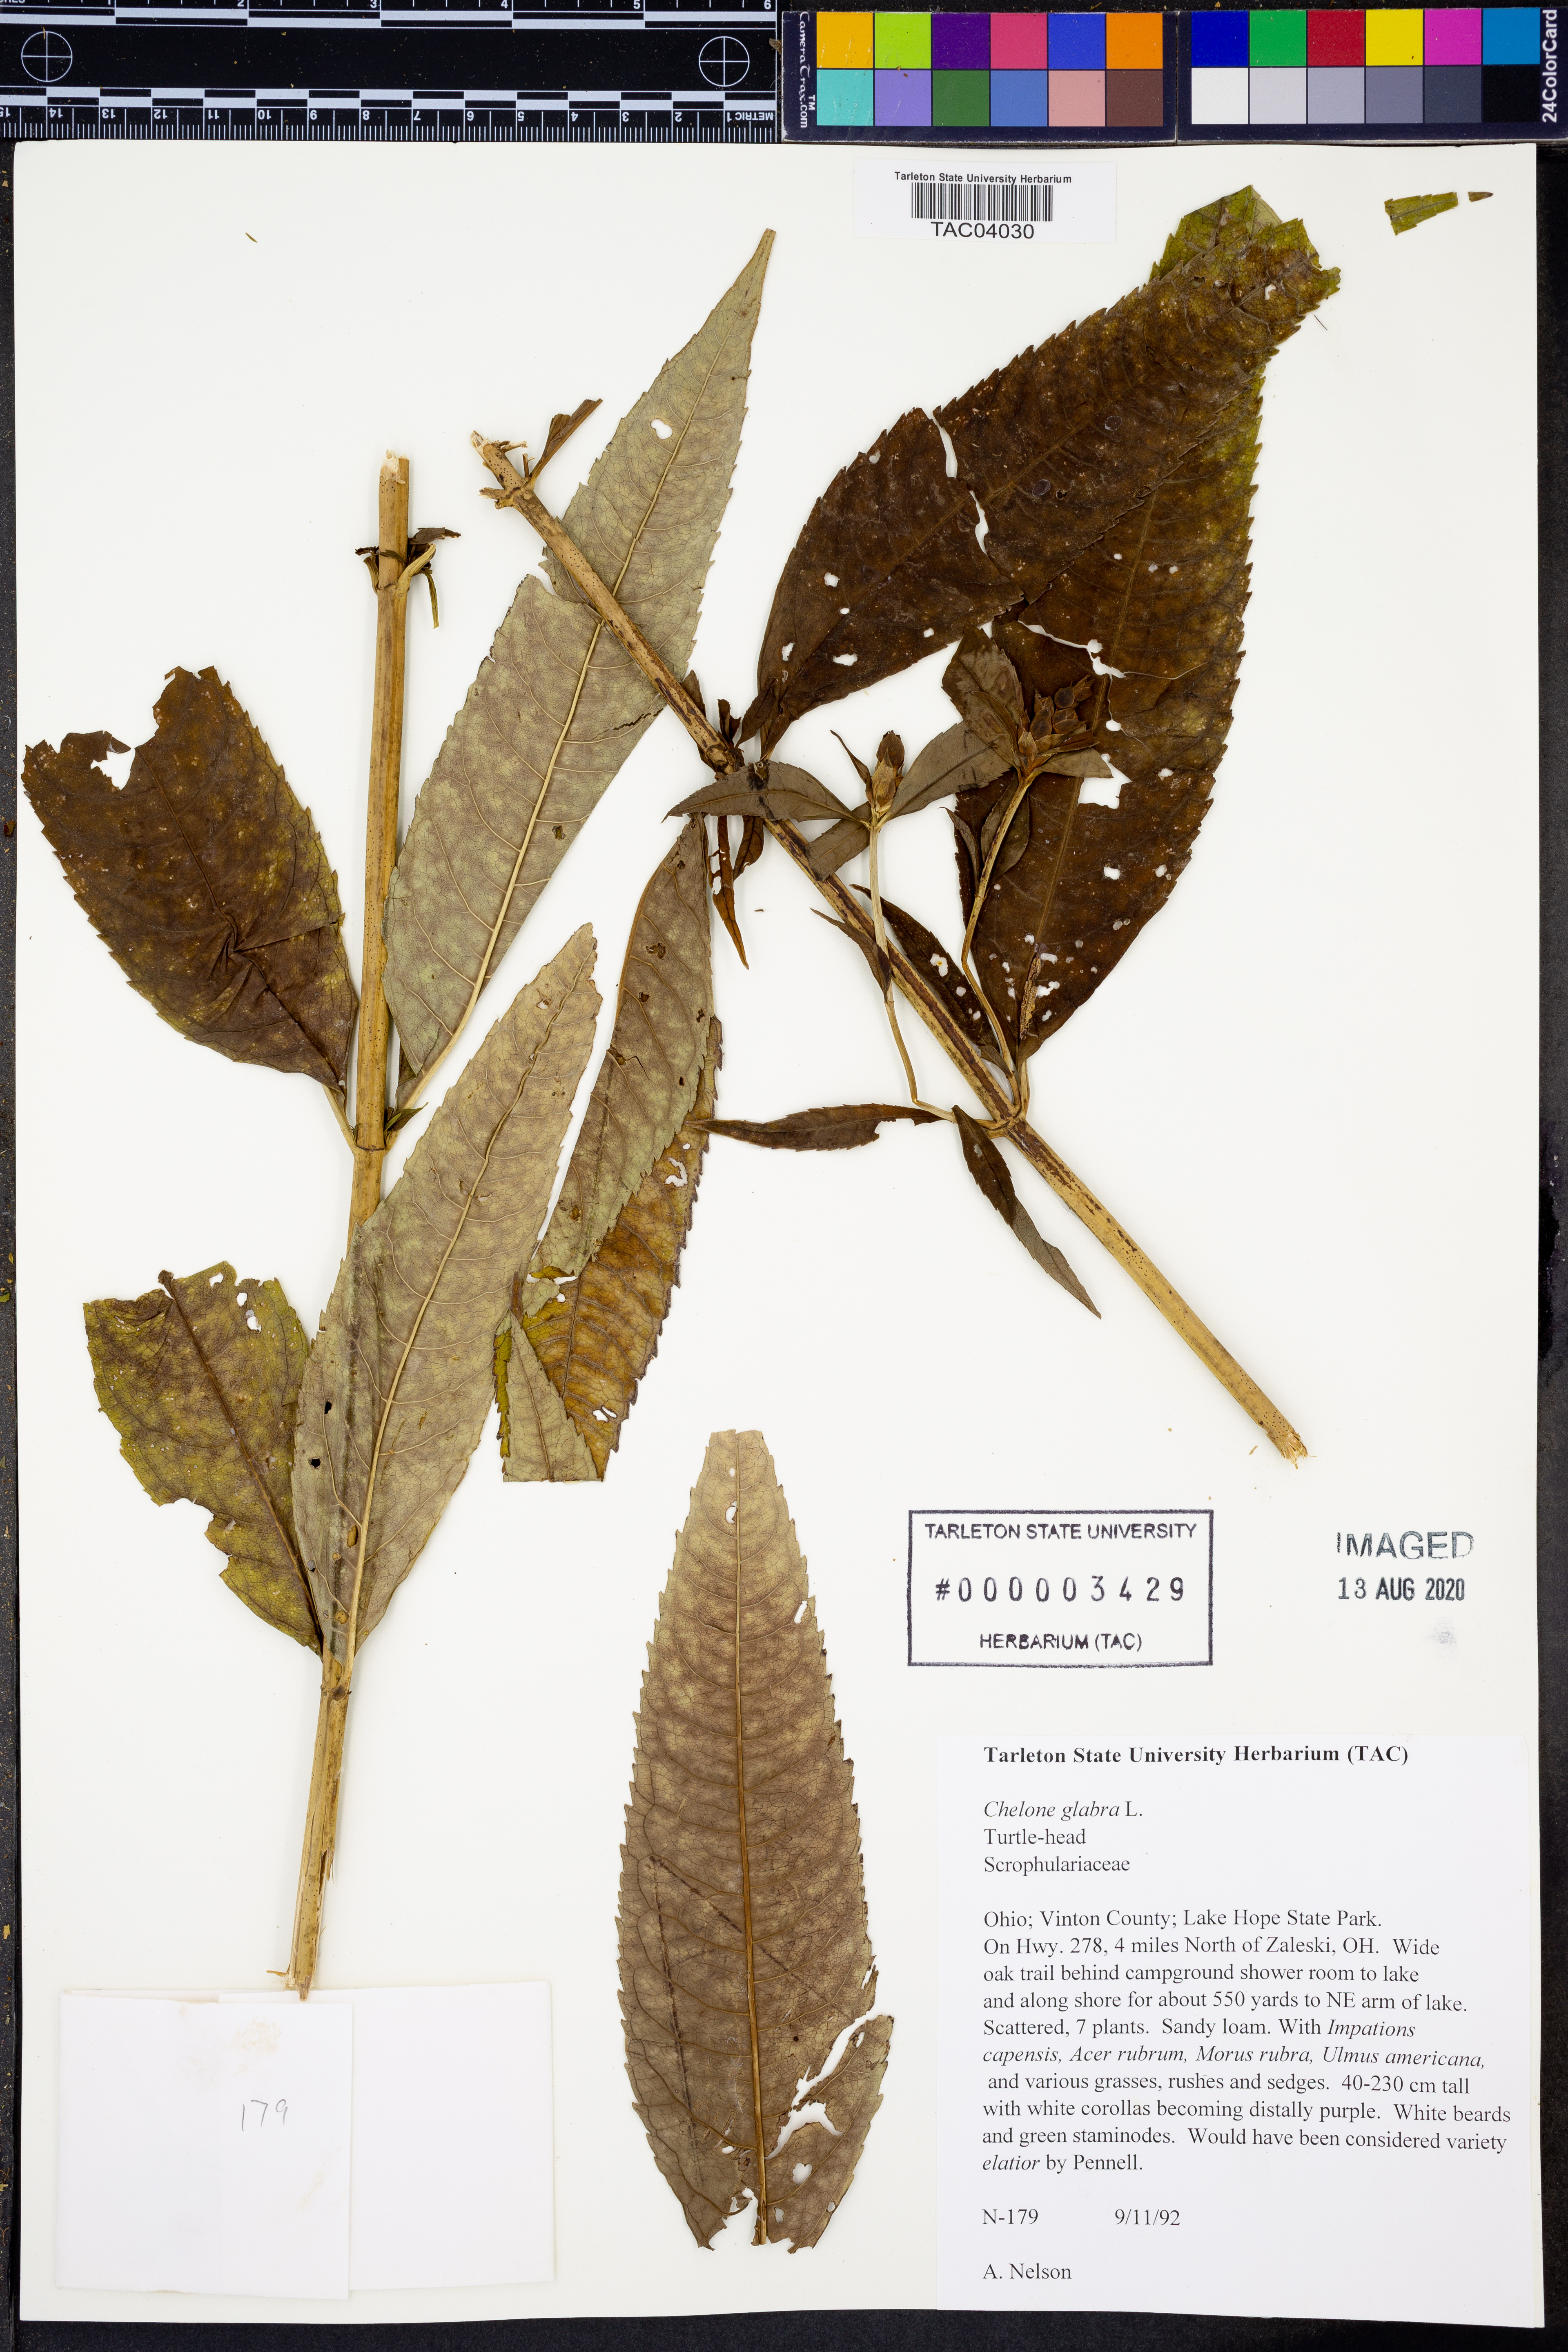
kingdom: Plantae
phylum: Tracheophyta
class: Magnoliopsida
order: Lamiales
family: Plantaginaceae
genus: Chelone
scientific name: Chelone glabra
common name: Snakehead
